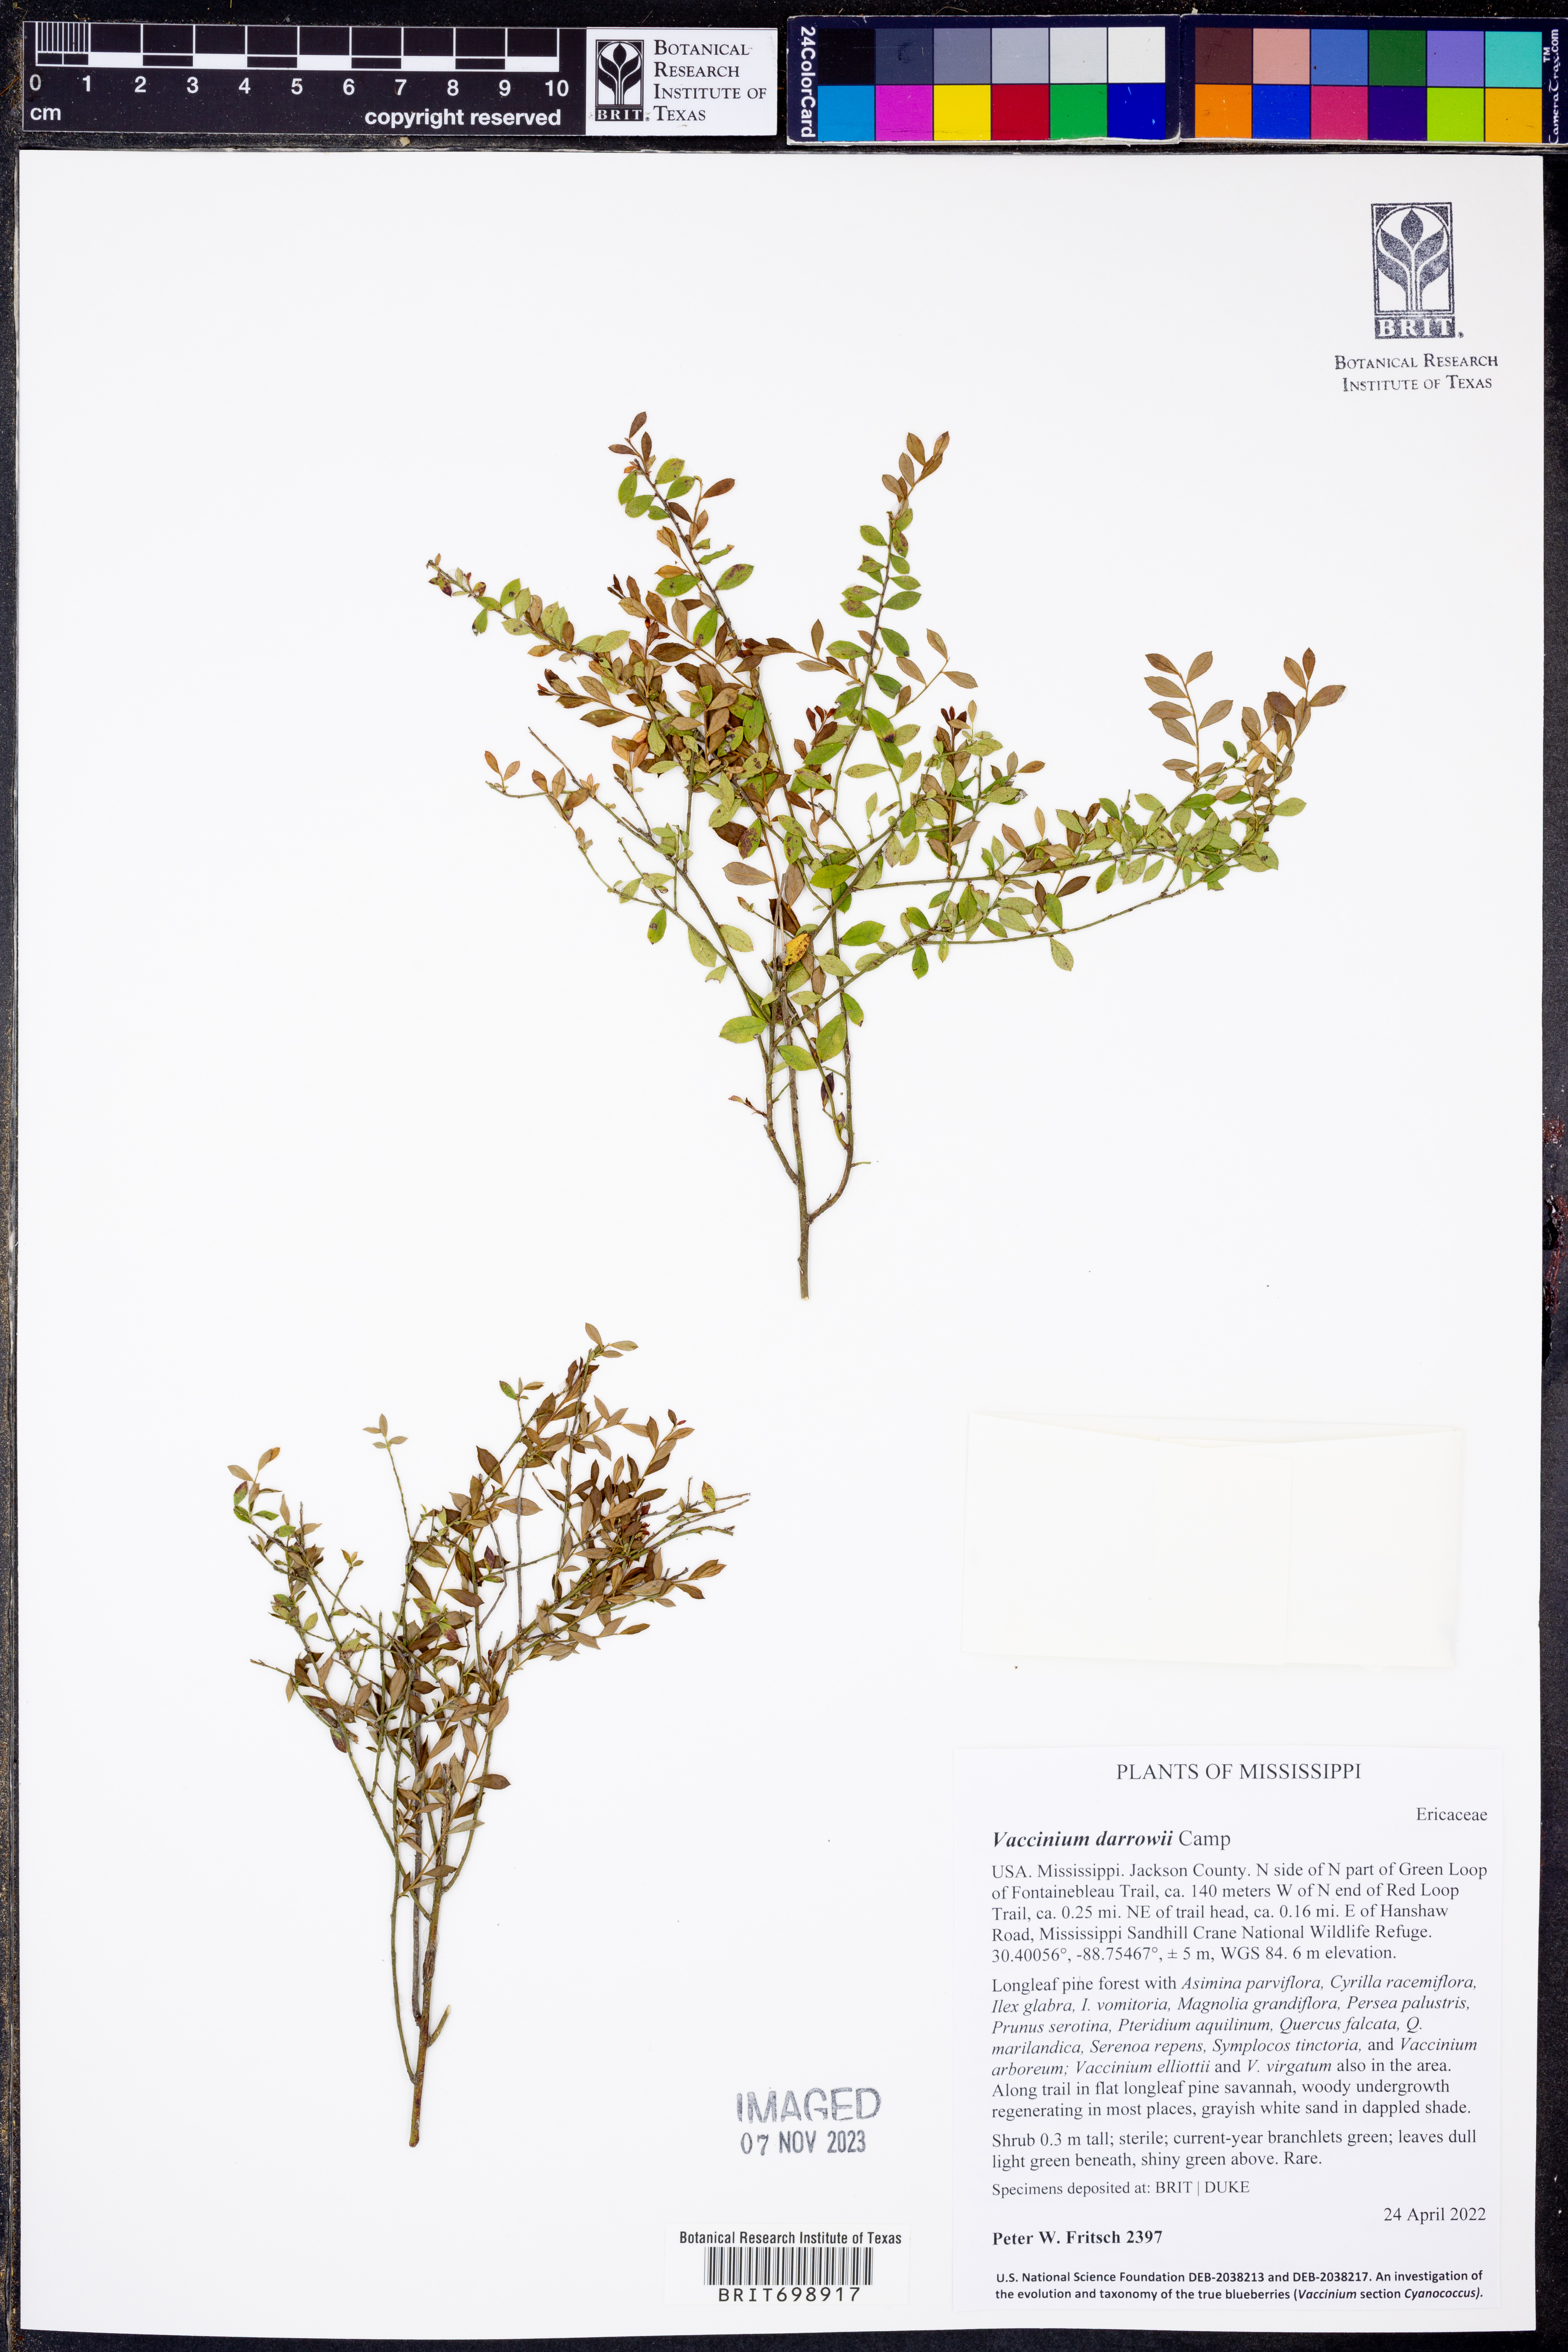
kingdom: Plantae
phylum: Tracheophyta
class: Magnoliopsida
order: Ericales
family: Ericaceae
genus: Vaccinium
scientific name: Vaccinium darrowii
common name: Darrow's blueberry
